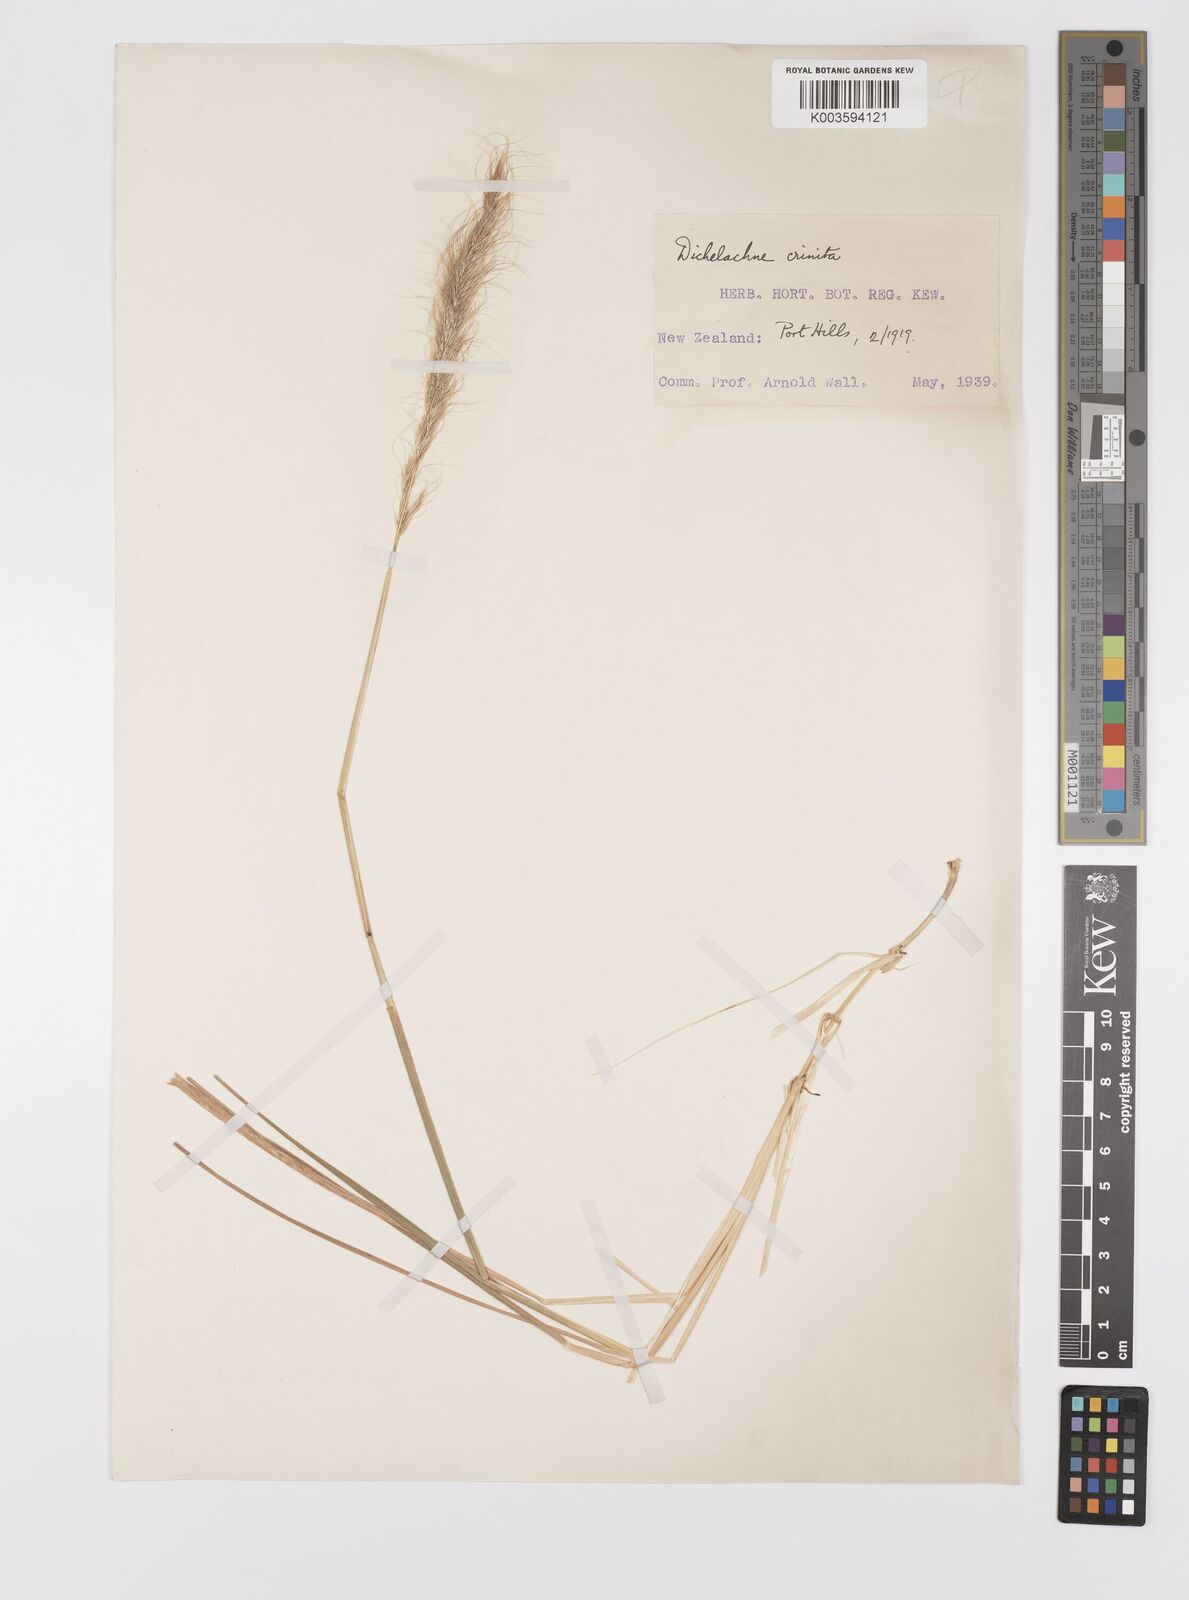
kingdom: Plantae
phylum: Tracheophyta
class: Liliopsida
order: Poales
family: Poaceae
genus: Dichelachne
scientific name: Dichelachne crinita
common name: Clovenfoot plumegrass
